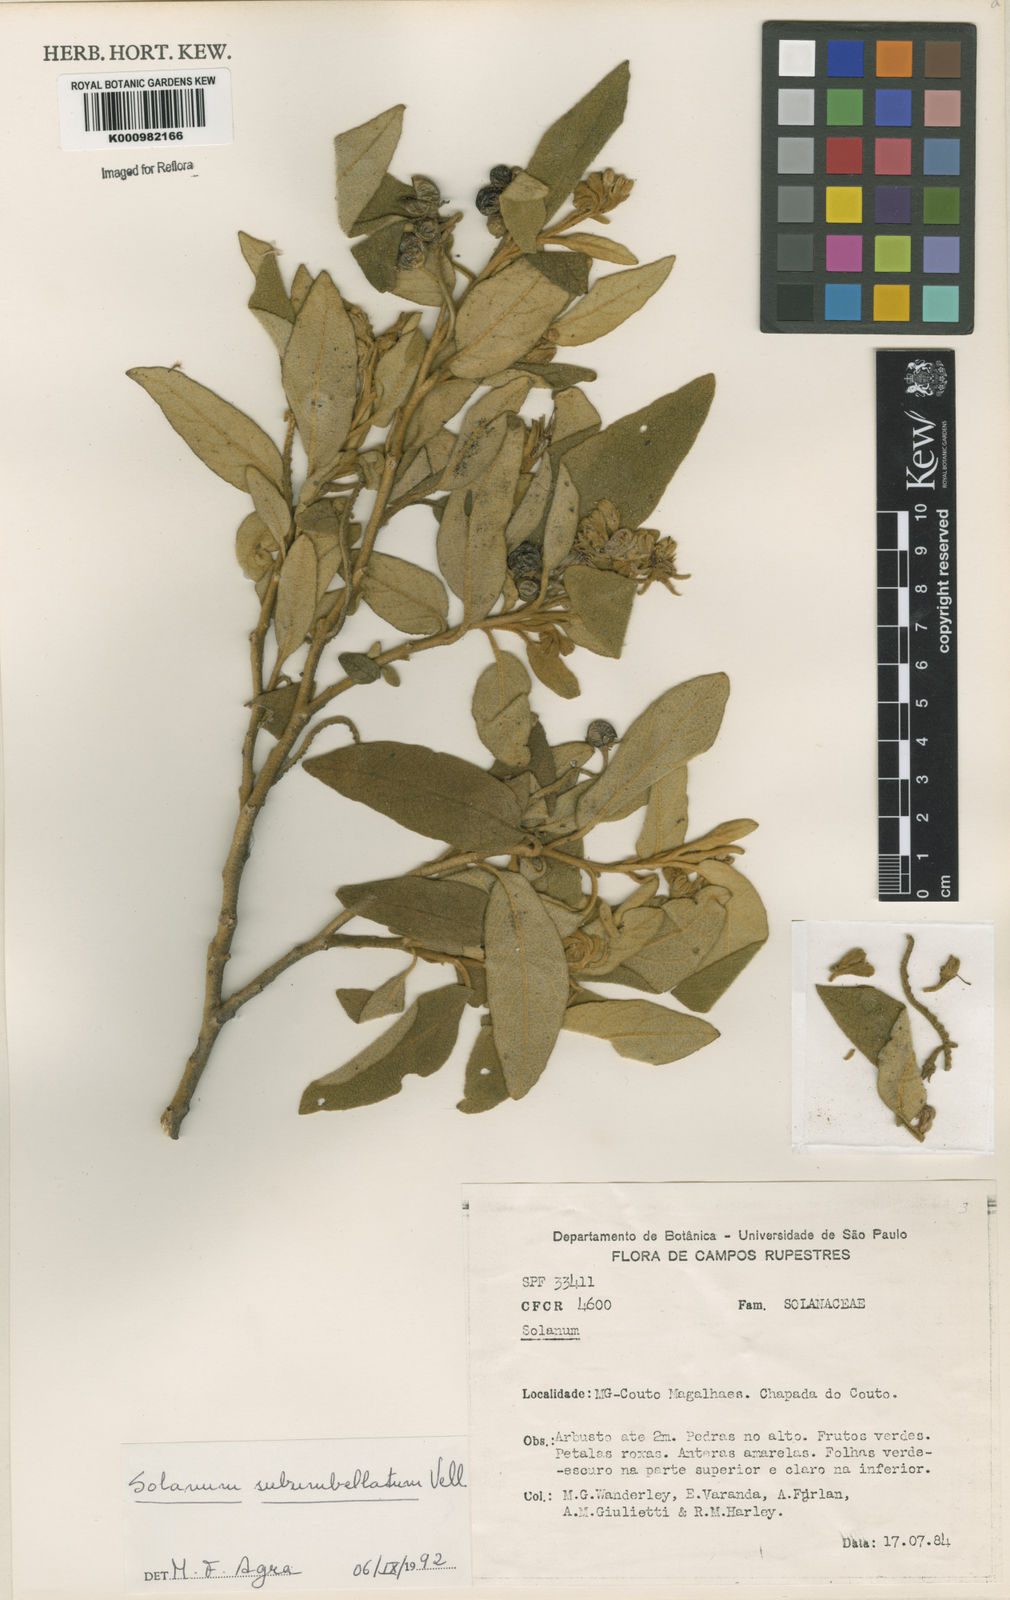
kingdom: Plantae
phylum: Tracheophyta
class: Magnoliopsida
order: Solanales
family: Solanaceae
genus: Solanum
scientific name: Solanum subumbellatum
